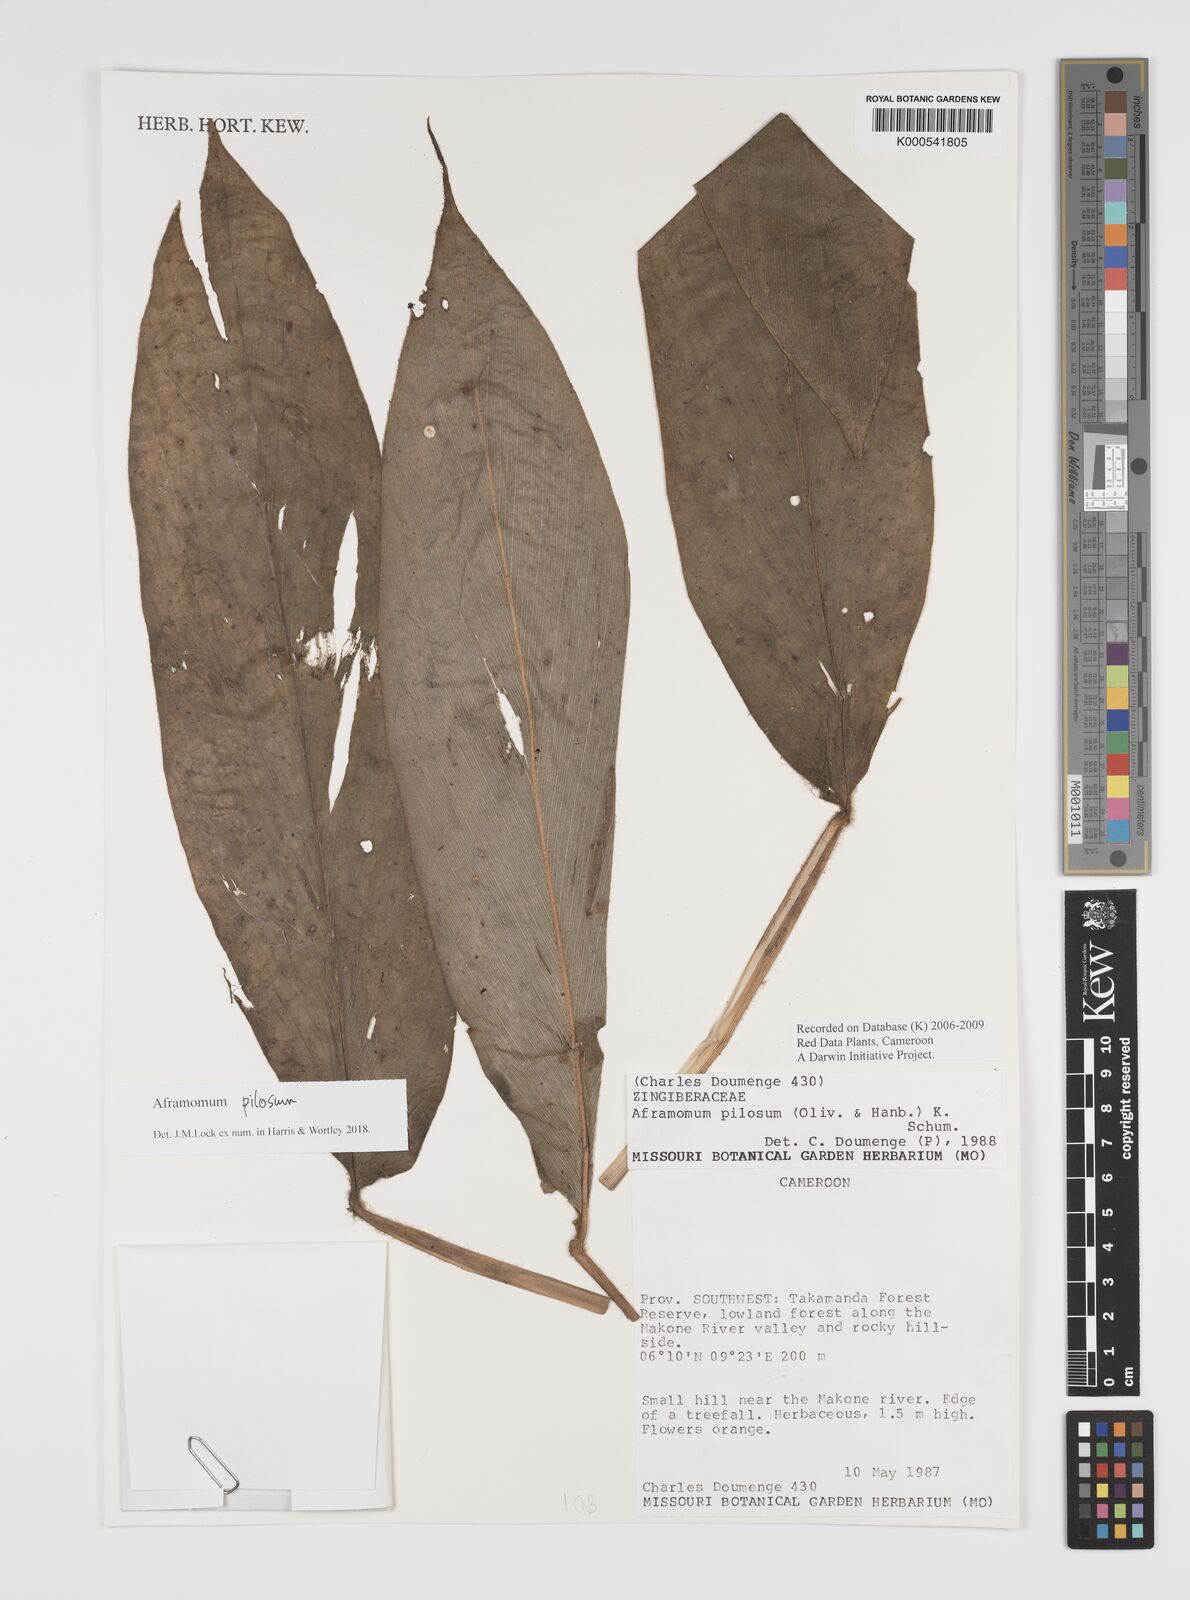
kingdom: Plantae
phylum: Tracheophyta
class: Liliopsida
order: Zingiberales
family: Zingiberaceae
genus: Aframomum
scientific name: Aframomum pilosum
